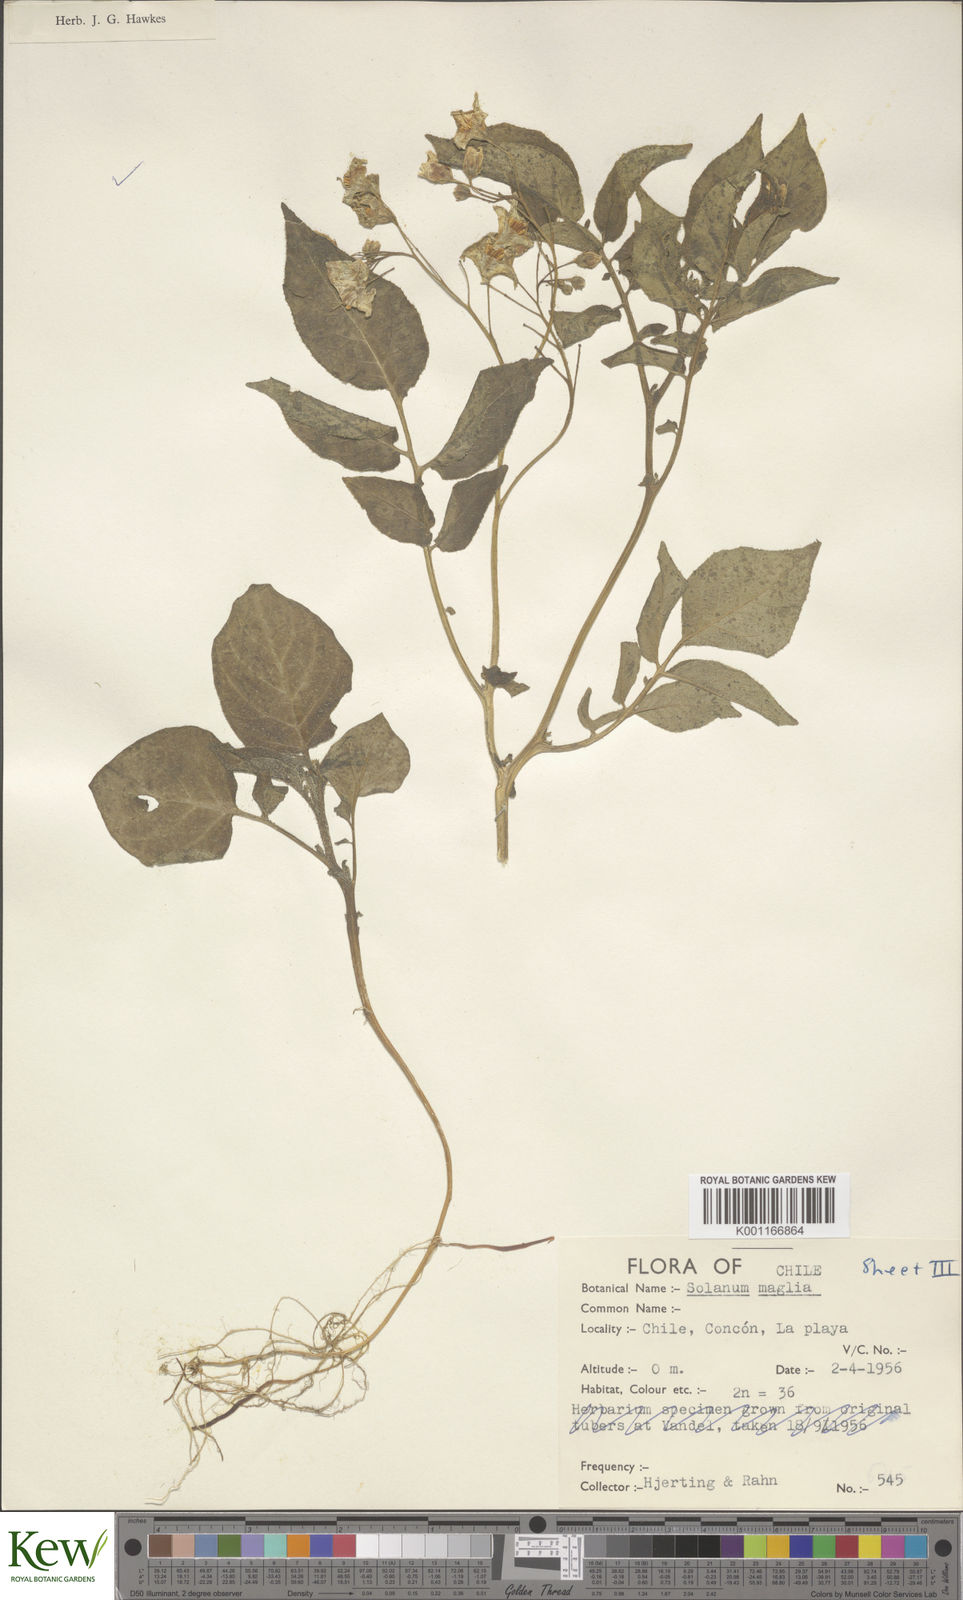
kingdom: Plantae
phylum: Tracheophyta
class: Magnoliopsida
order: Solanales
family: Solanaceae
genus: Solanum
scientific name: Solanum maglia
